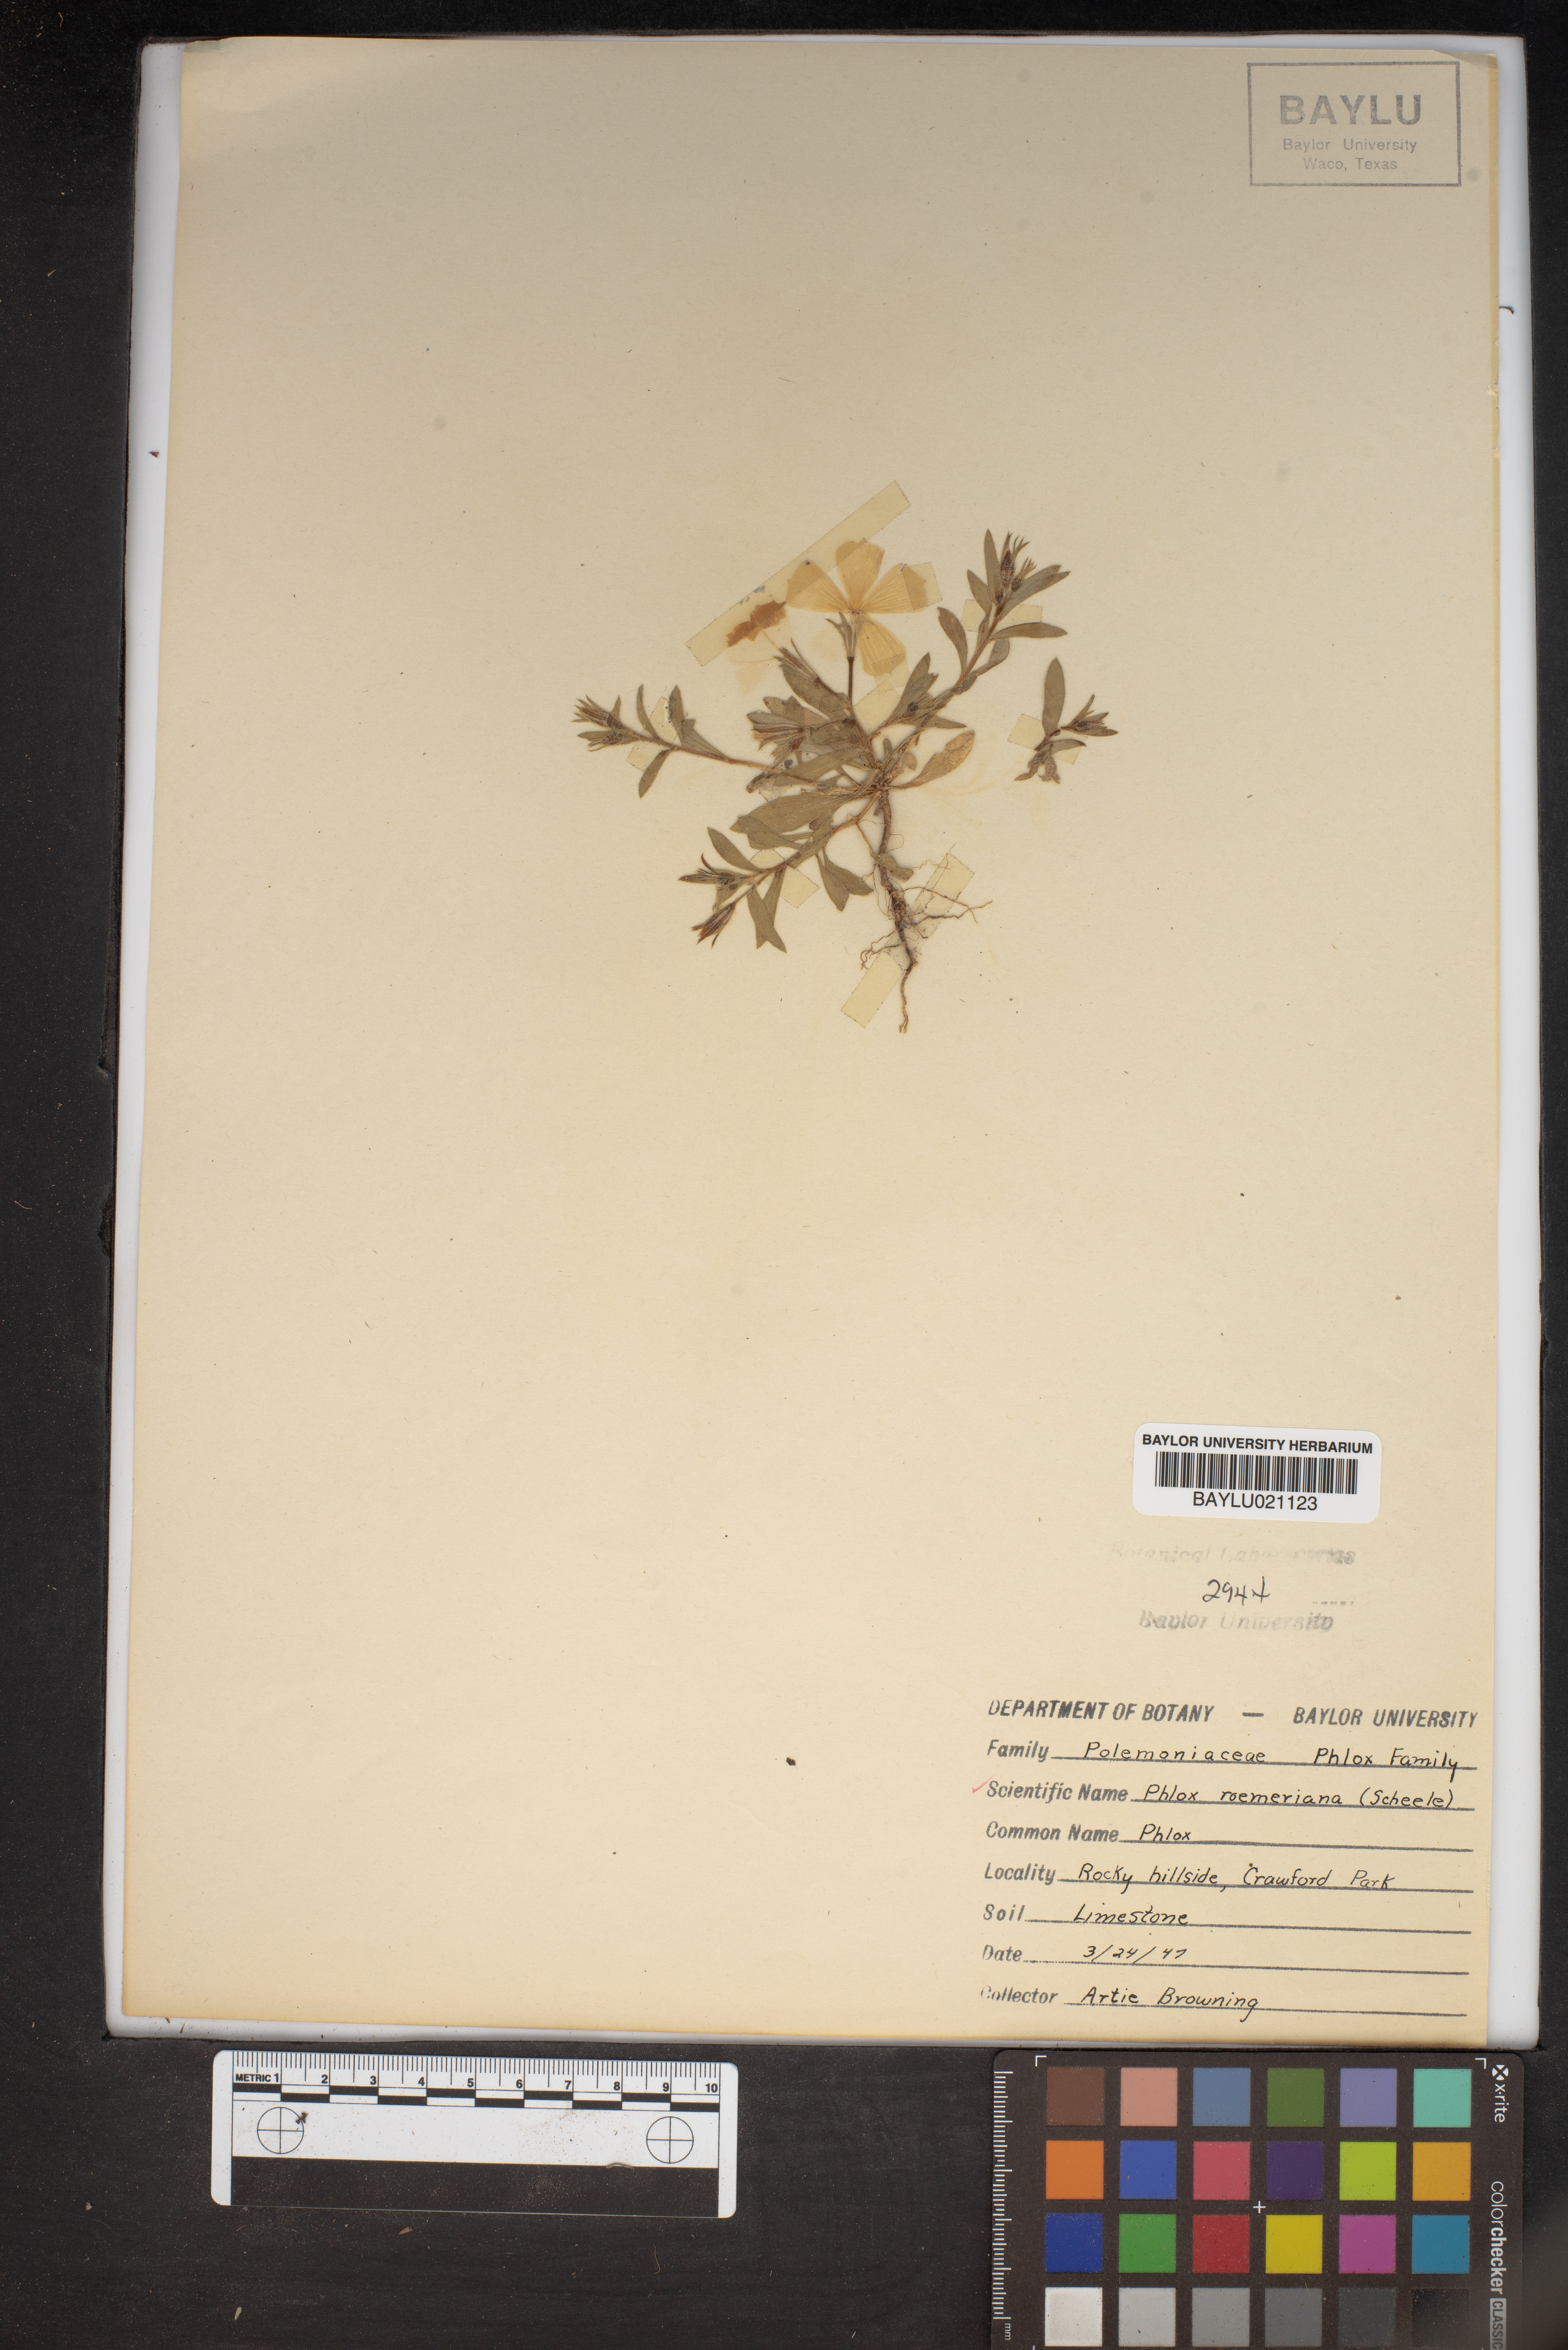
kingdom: Plantae
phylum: Tracheophyta
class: Magnoliopsida
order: Ericales
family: Polemoniaceae
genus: Phlox
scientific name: Phlox roemeriana
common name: Roemer's phlox
